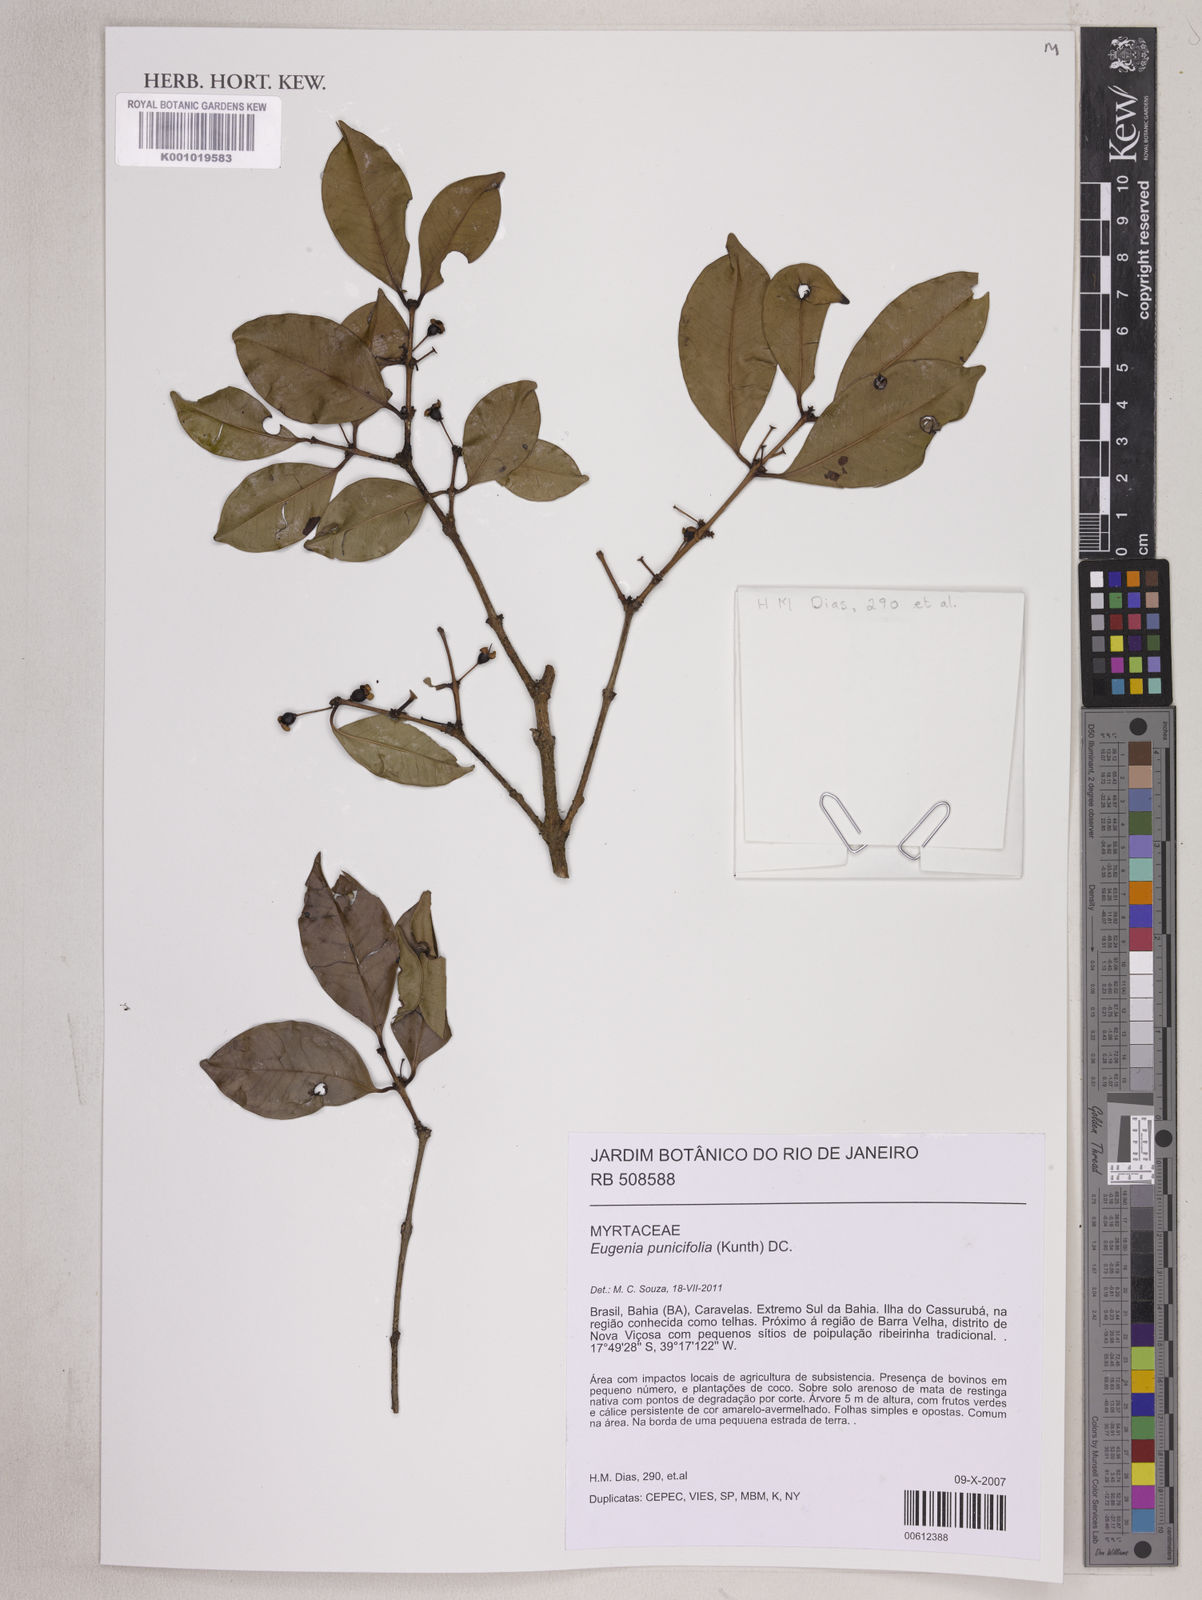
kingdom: Plantae
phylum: Tracheophyta
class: Magnoliopsida
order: Myrtales
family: Myrtaceae
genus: Eugenia
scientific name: Eugenia punicifolia
